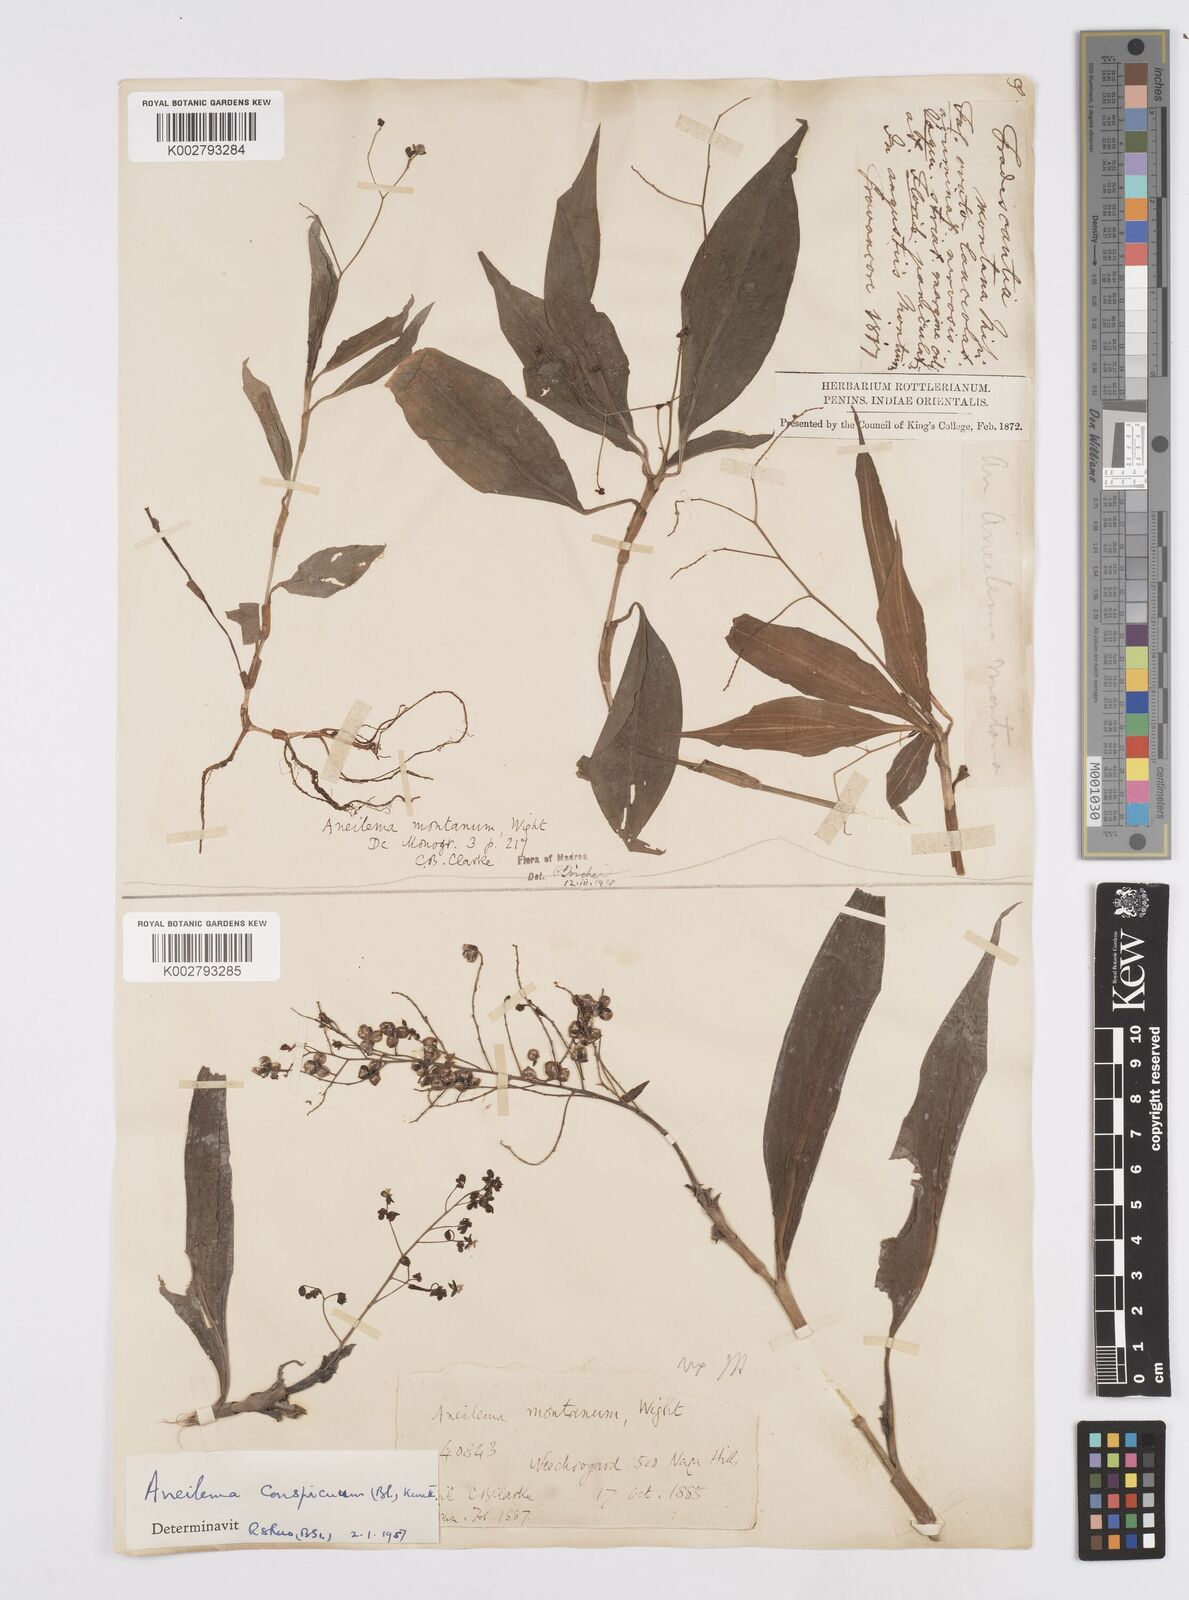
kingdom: Plantae
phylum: Tracheophyta
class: Liliopsida
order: Commelinales
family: Commelinaceae
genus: Murdannia
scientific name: Murdannia
